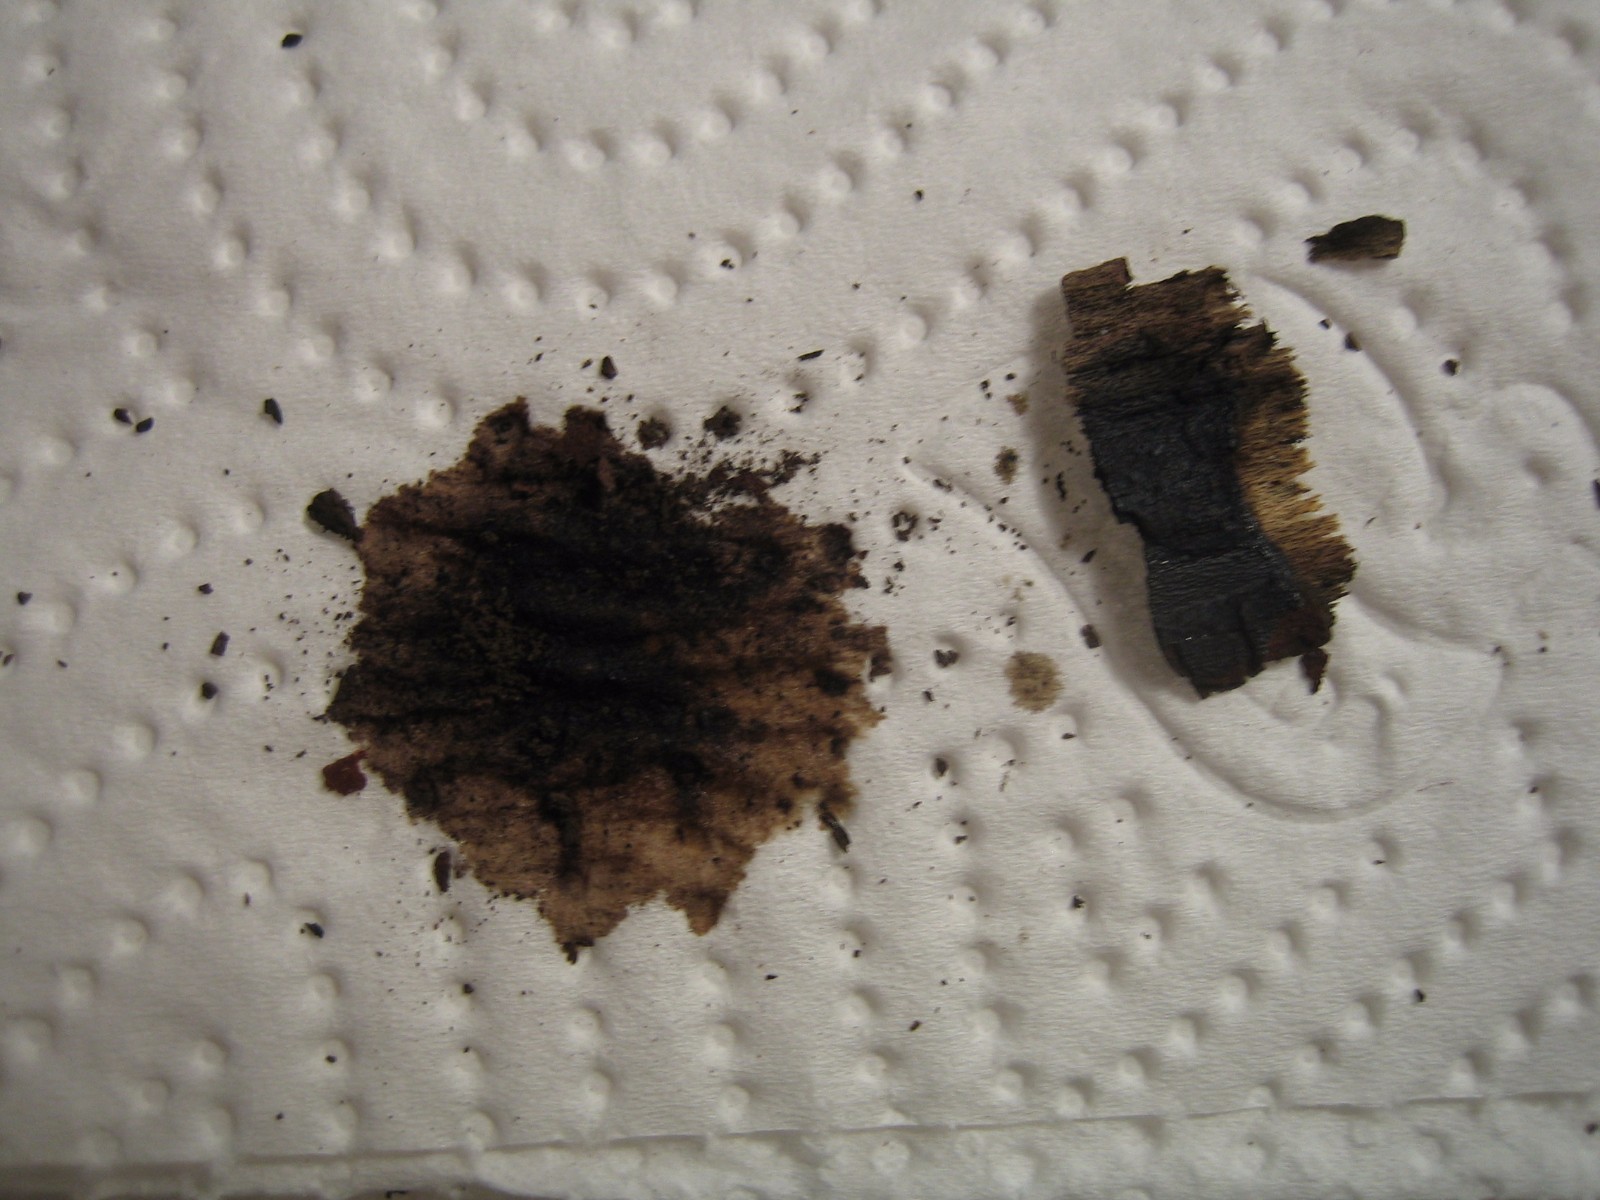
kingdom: Fungi
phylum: Ascomycota
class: Sordariomycetes
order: Xylariales
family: Hypoxylaceae
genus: Hypoxylon
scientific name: Hypoxylon macrocarpum
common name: skorpe-kulbær
